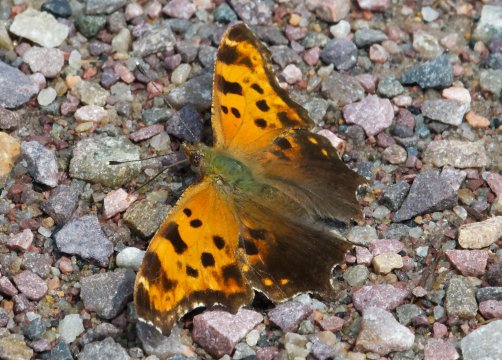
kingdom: Animalia
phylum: Arthropoda
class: Insecta
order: Lepidoptera
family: Nymphalidae
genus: Polygonia
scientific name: Polygonia comma
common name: Eastern Comma
